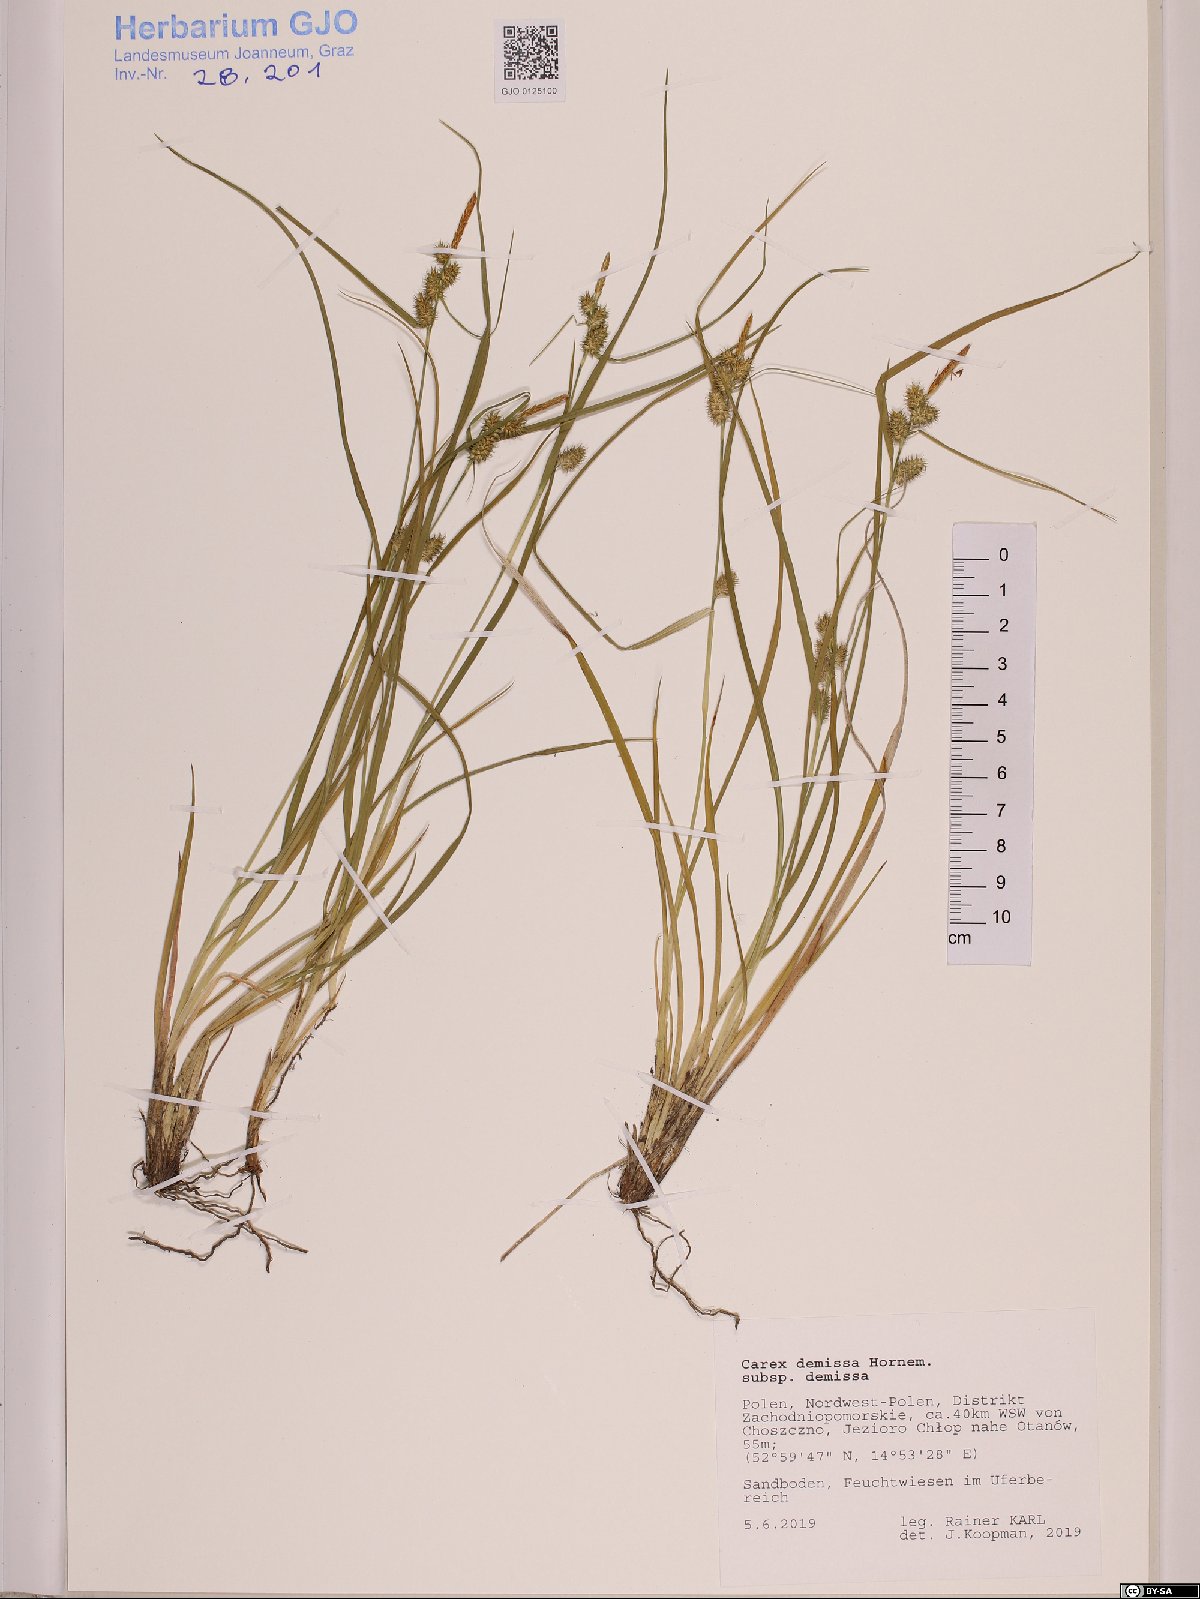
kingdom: Plantae
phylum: Tracheophyta
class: Liliopsida
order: Poales
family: Cyperaceae
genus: Carex
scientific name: Carex demissa
